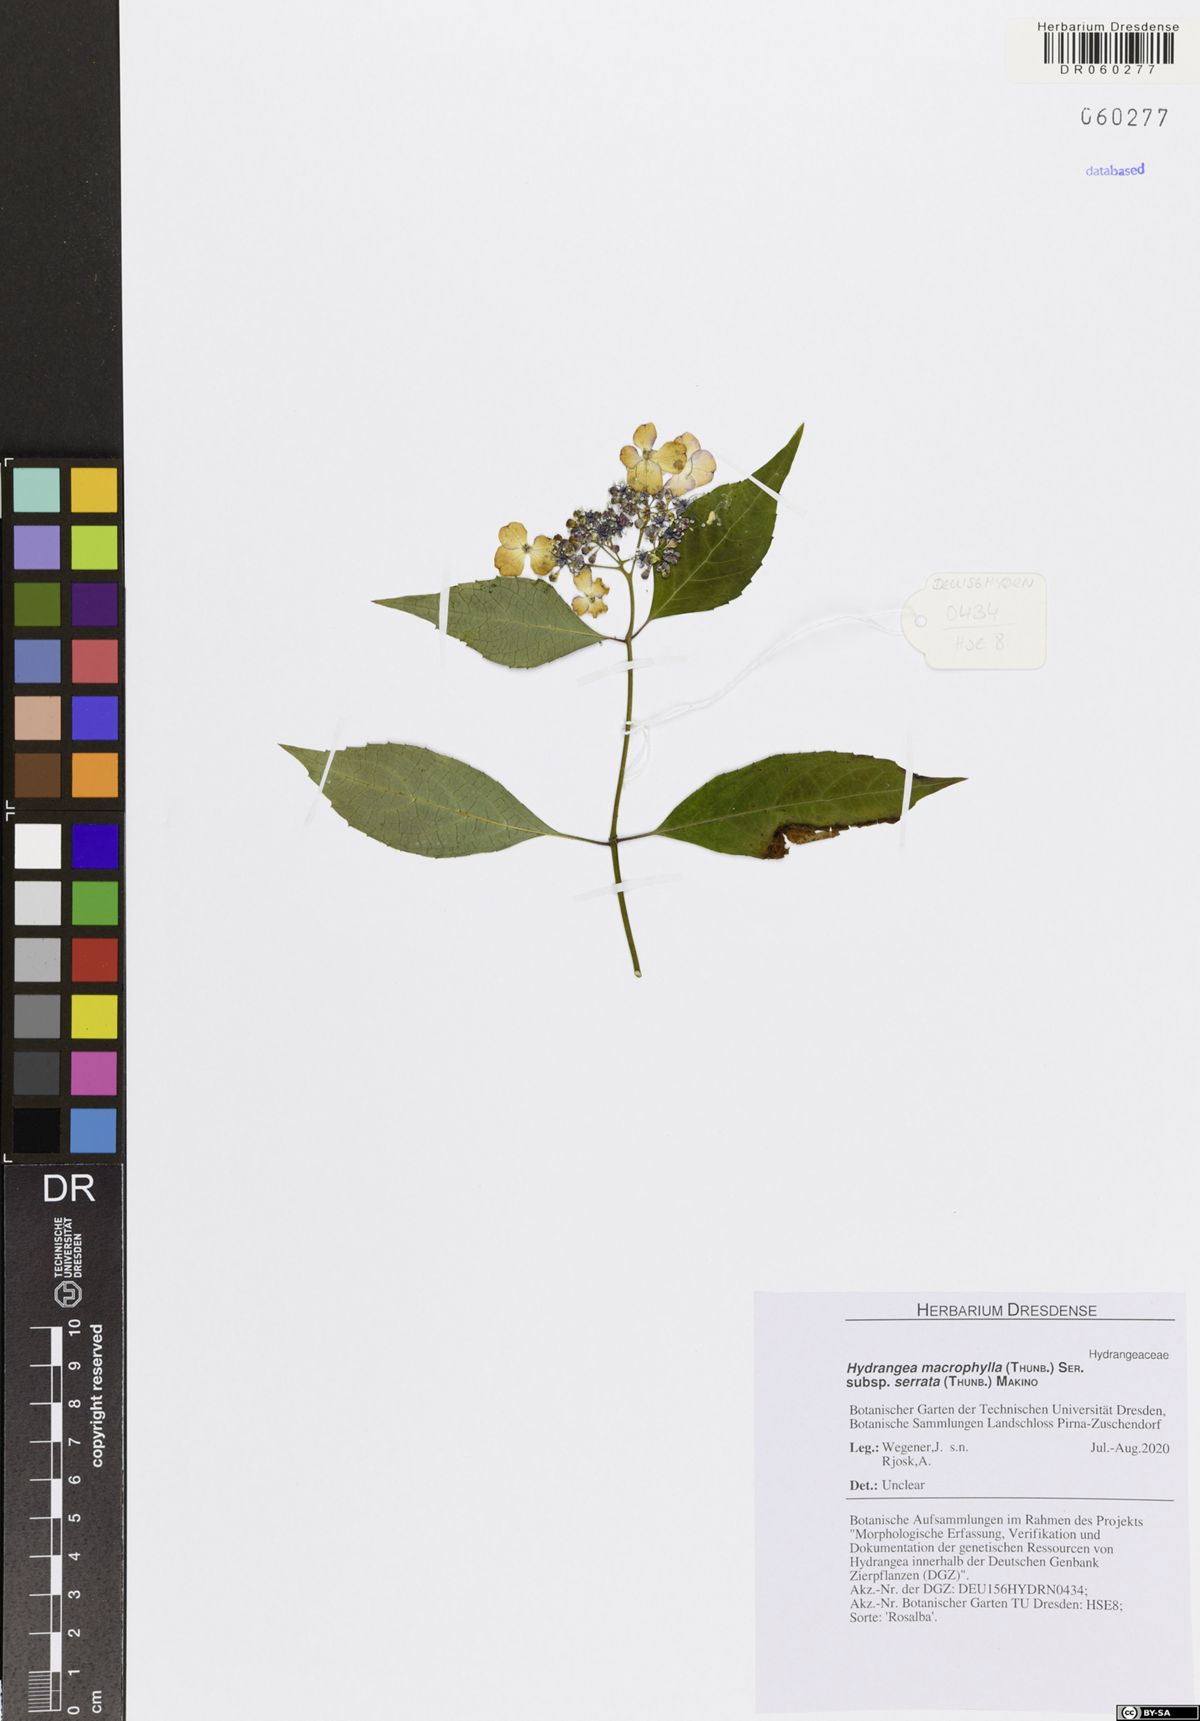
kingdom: Plantae
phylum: Tracheophyta
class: Magnoliopsida
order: Cornales
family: Hydrangeaceae
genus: Hydrangea
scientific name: Hydrangea serrata
